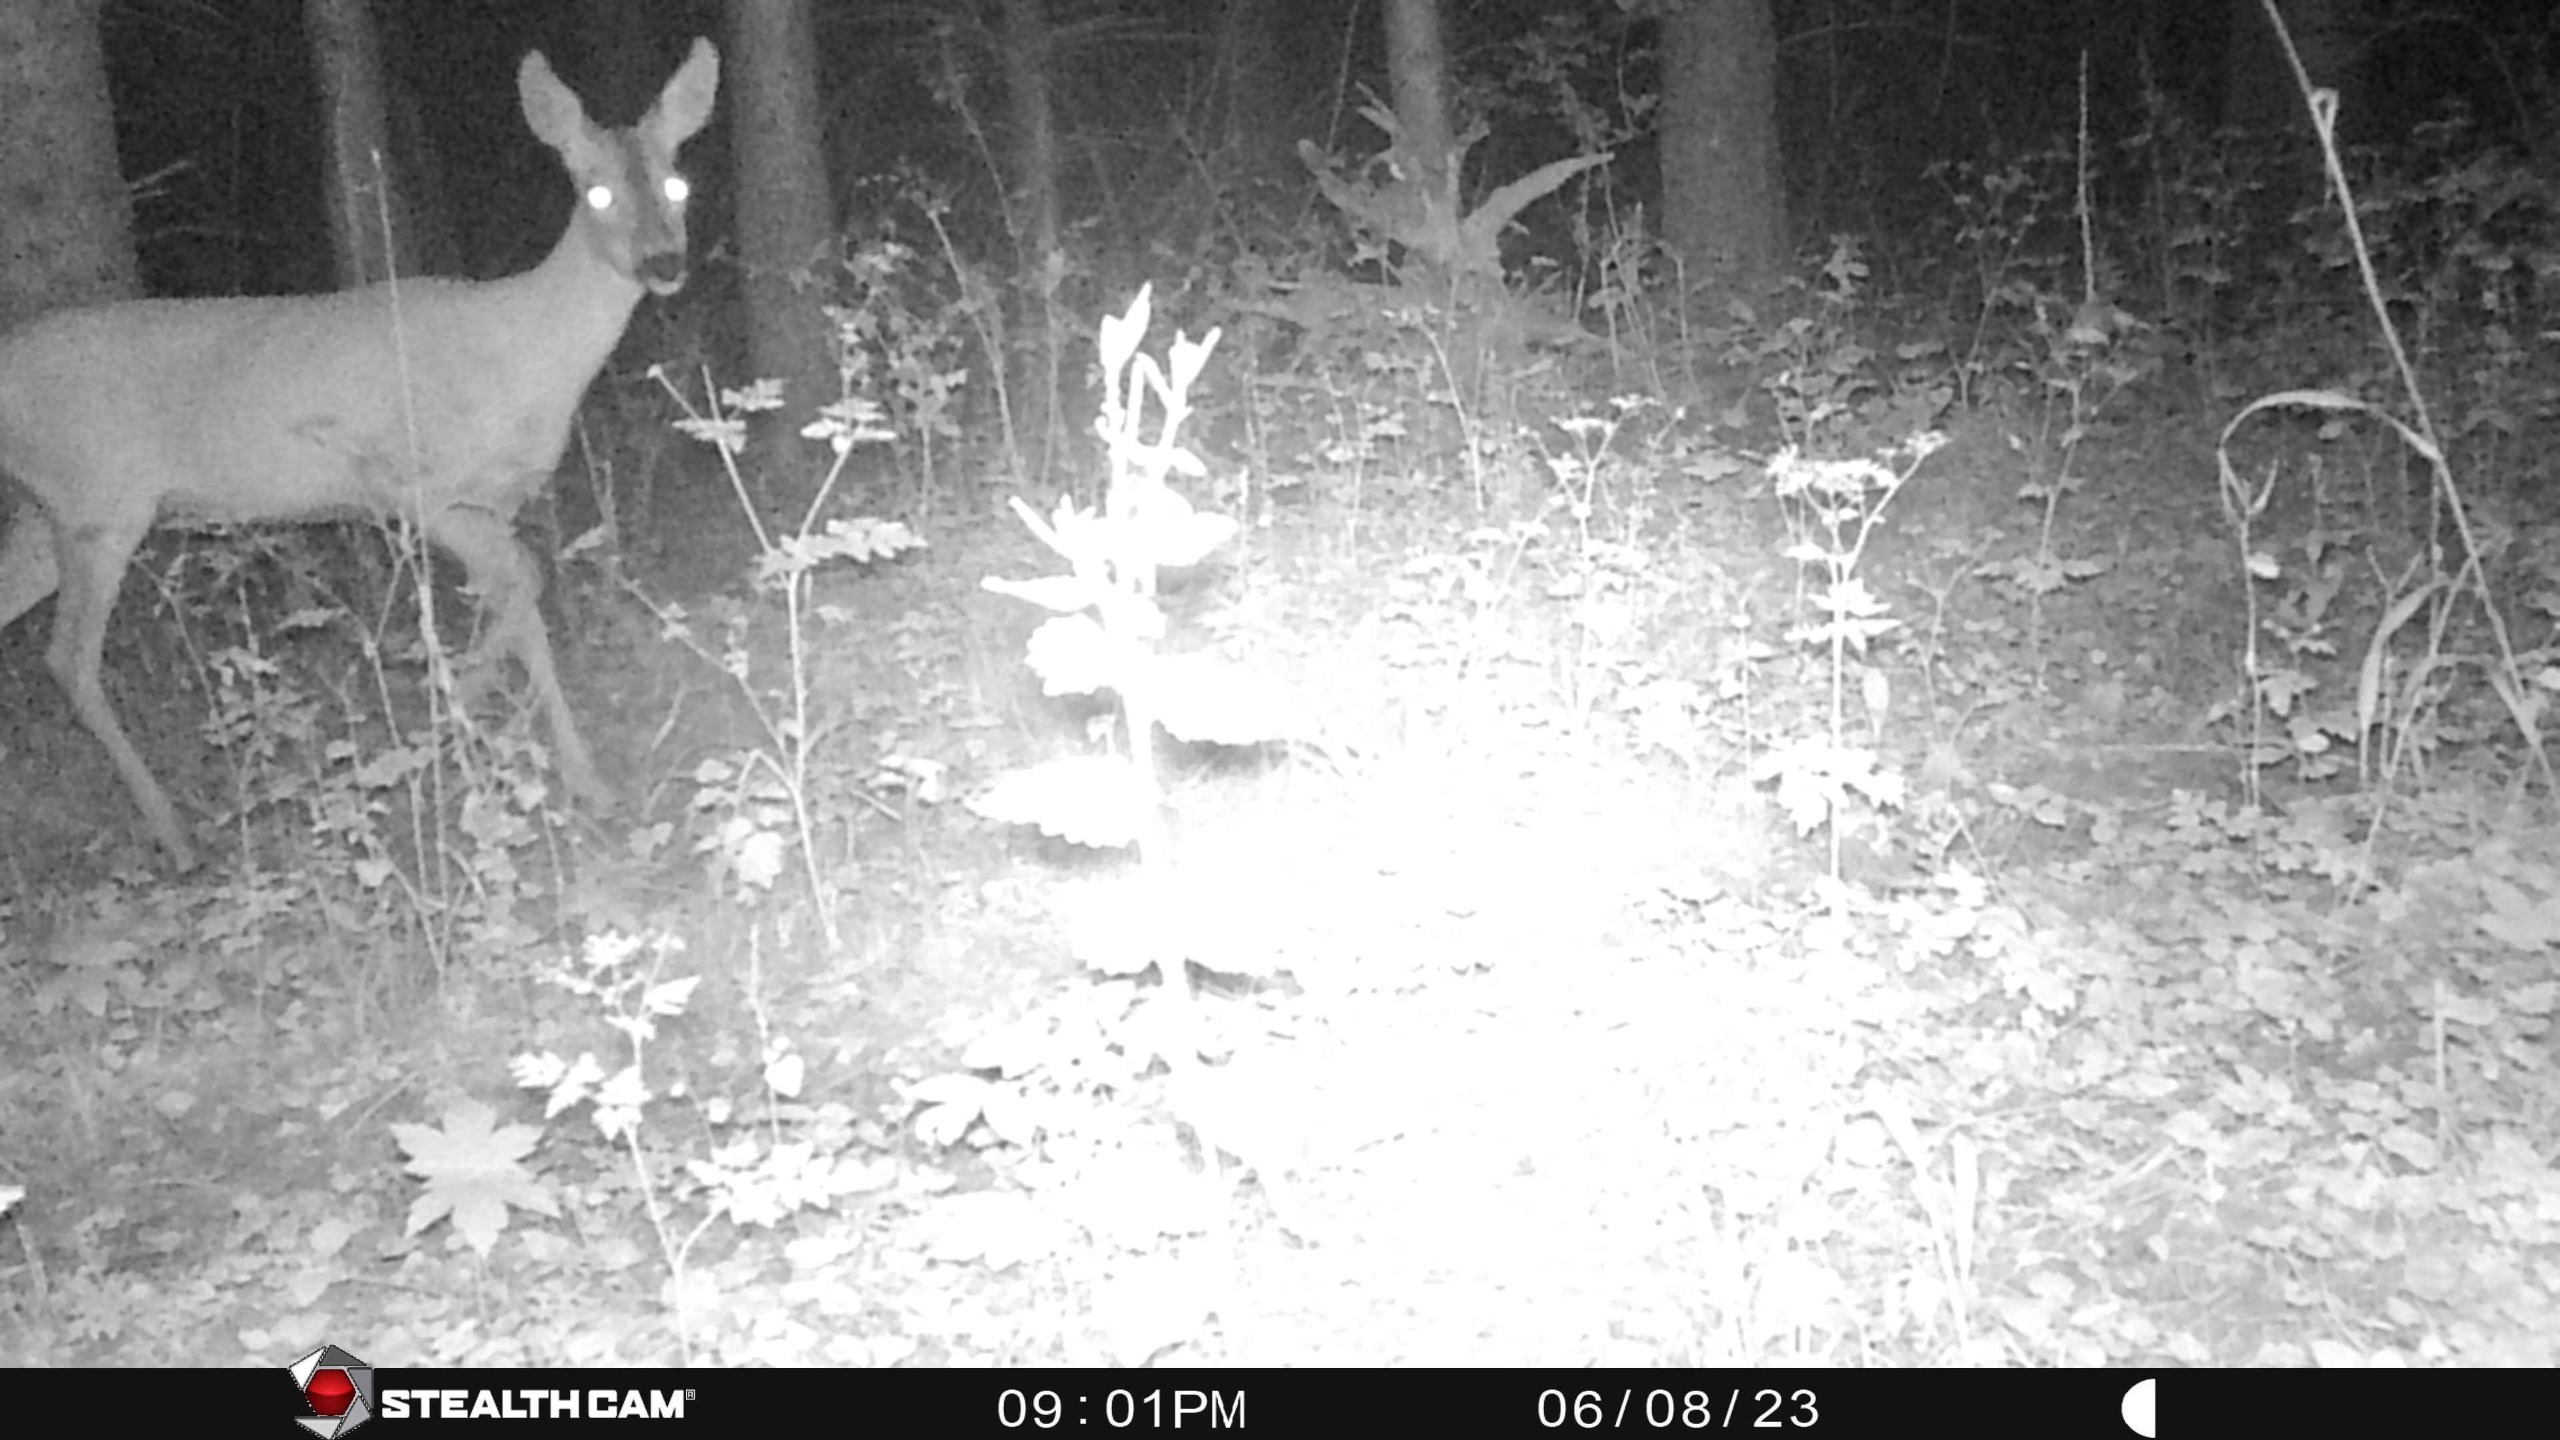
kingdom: Animalia
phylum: Chordata
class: Mammalia
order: Artiodactyla
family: Cervidae
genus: Capreolus
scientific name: Capreolus capreolus
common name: Rådyr
